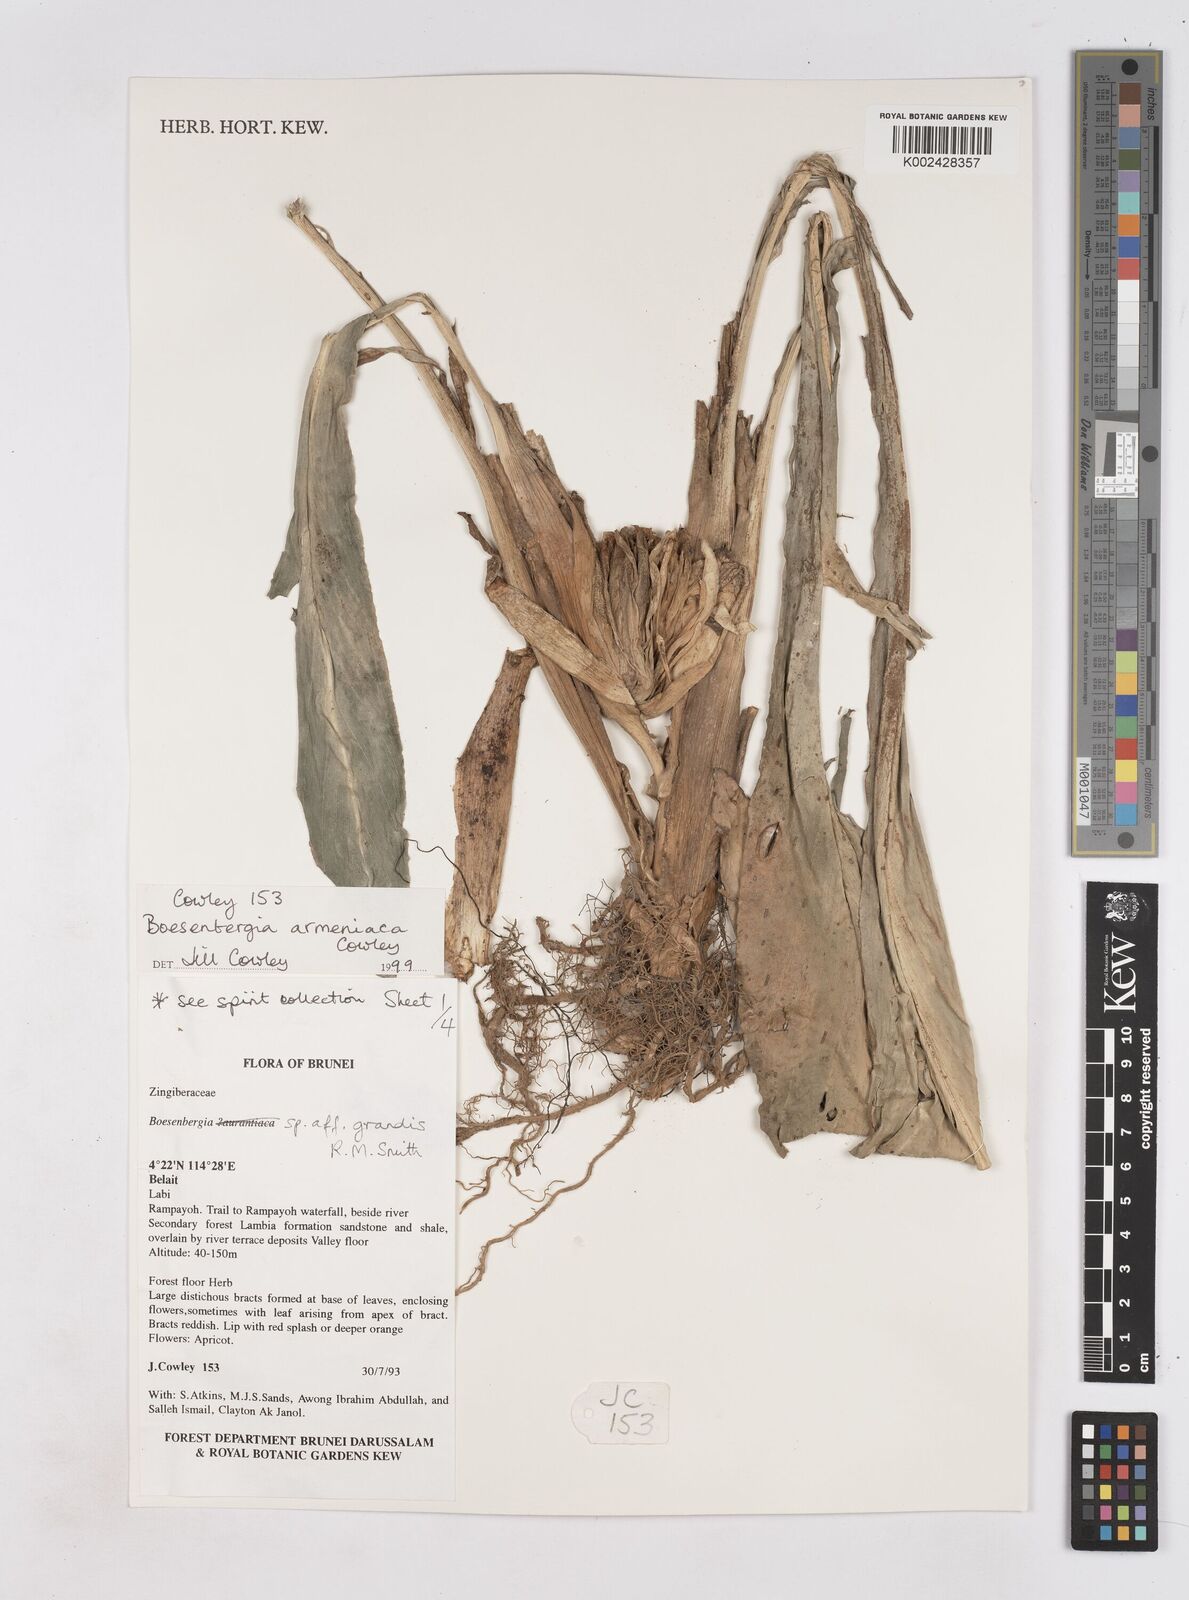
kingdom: Plantae
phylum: Tracheophyta
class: Liliopsida
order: Zingiberales
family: Zingiberaceae
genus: Boesenbergia
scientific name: Boesenbergia armeniaca
